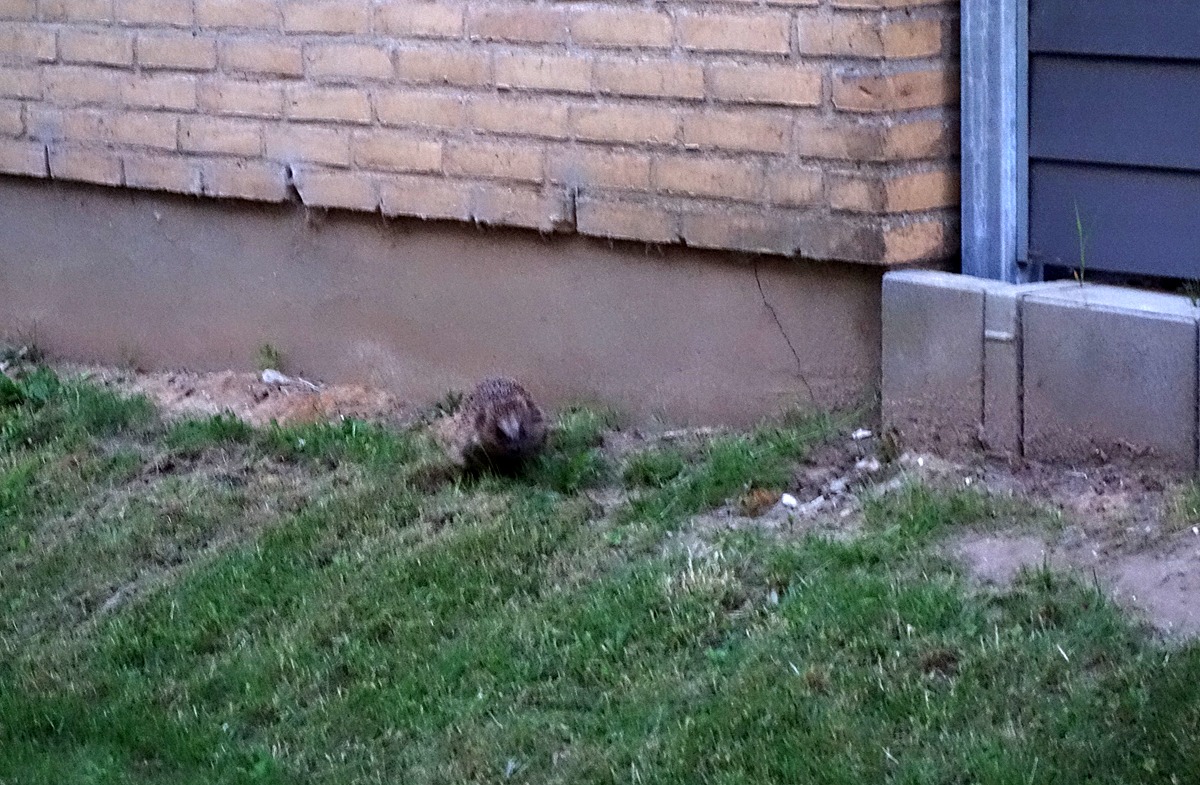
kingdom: Animalia
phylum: Chordata
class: Mammalia
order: Erinaceomorpha
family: Erinaceidae
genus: Erinaceus
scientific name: Erinaceus europaeus
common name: Pindsvin
